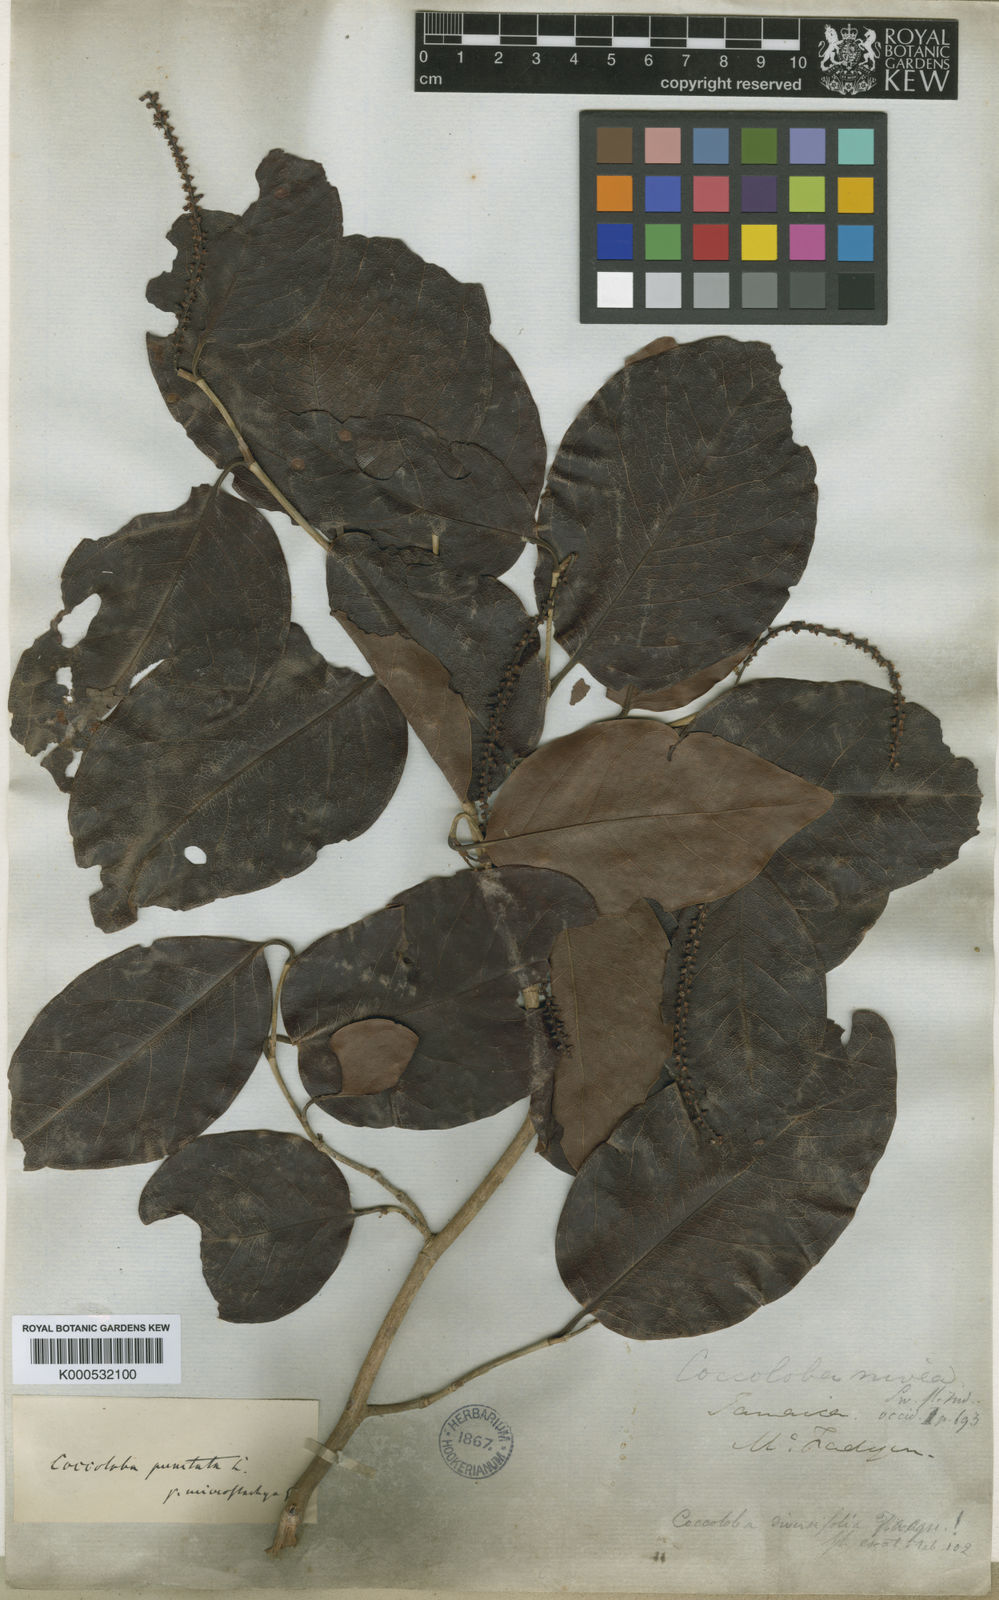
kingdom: Plantae
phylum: Tracheophyta
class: Magnoliopsida
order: Caryophyllales
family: Polygonaceae
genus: Coccoloba
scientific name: Coccoloba barbadensis
